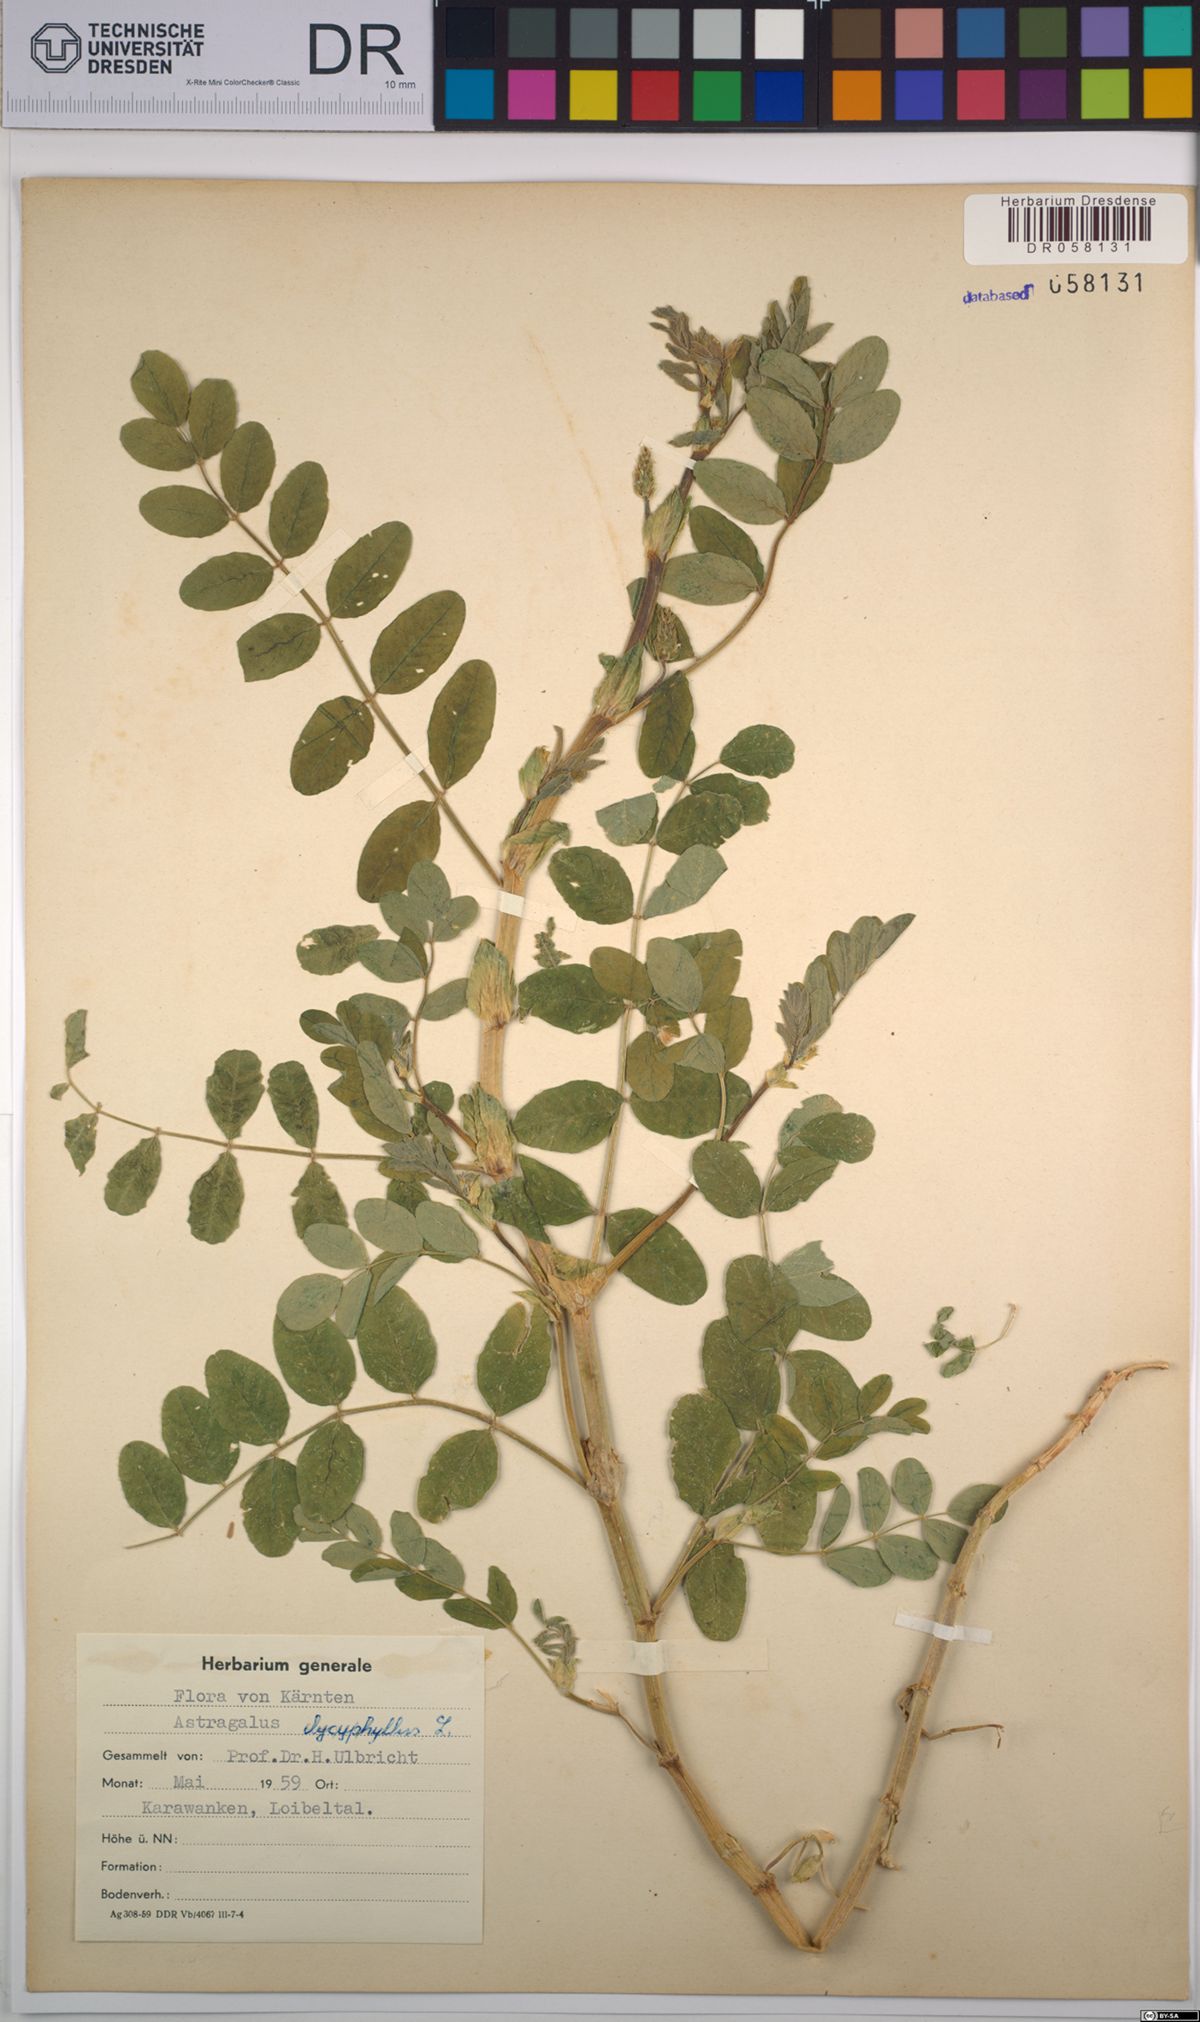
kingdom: Plantae
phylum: Tracheophyta
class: Magnoliopsida
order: Fabales
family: Fabaceae
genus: Astragalus
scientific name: Astragalus glycyphyllos
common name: Wild liquorice
